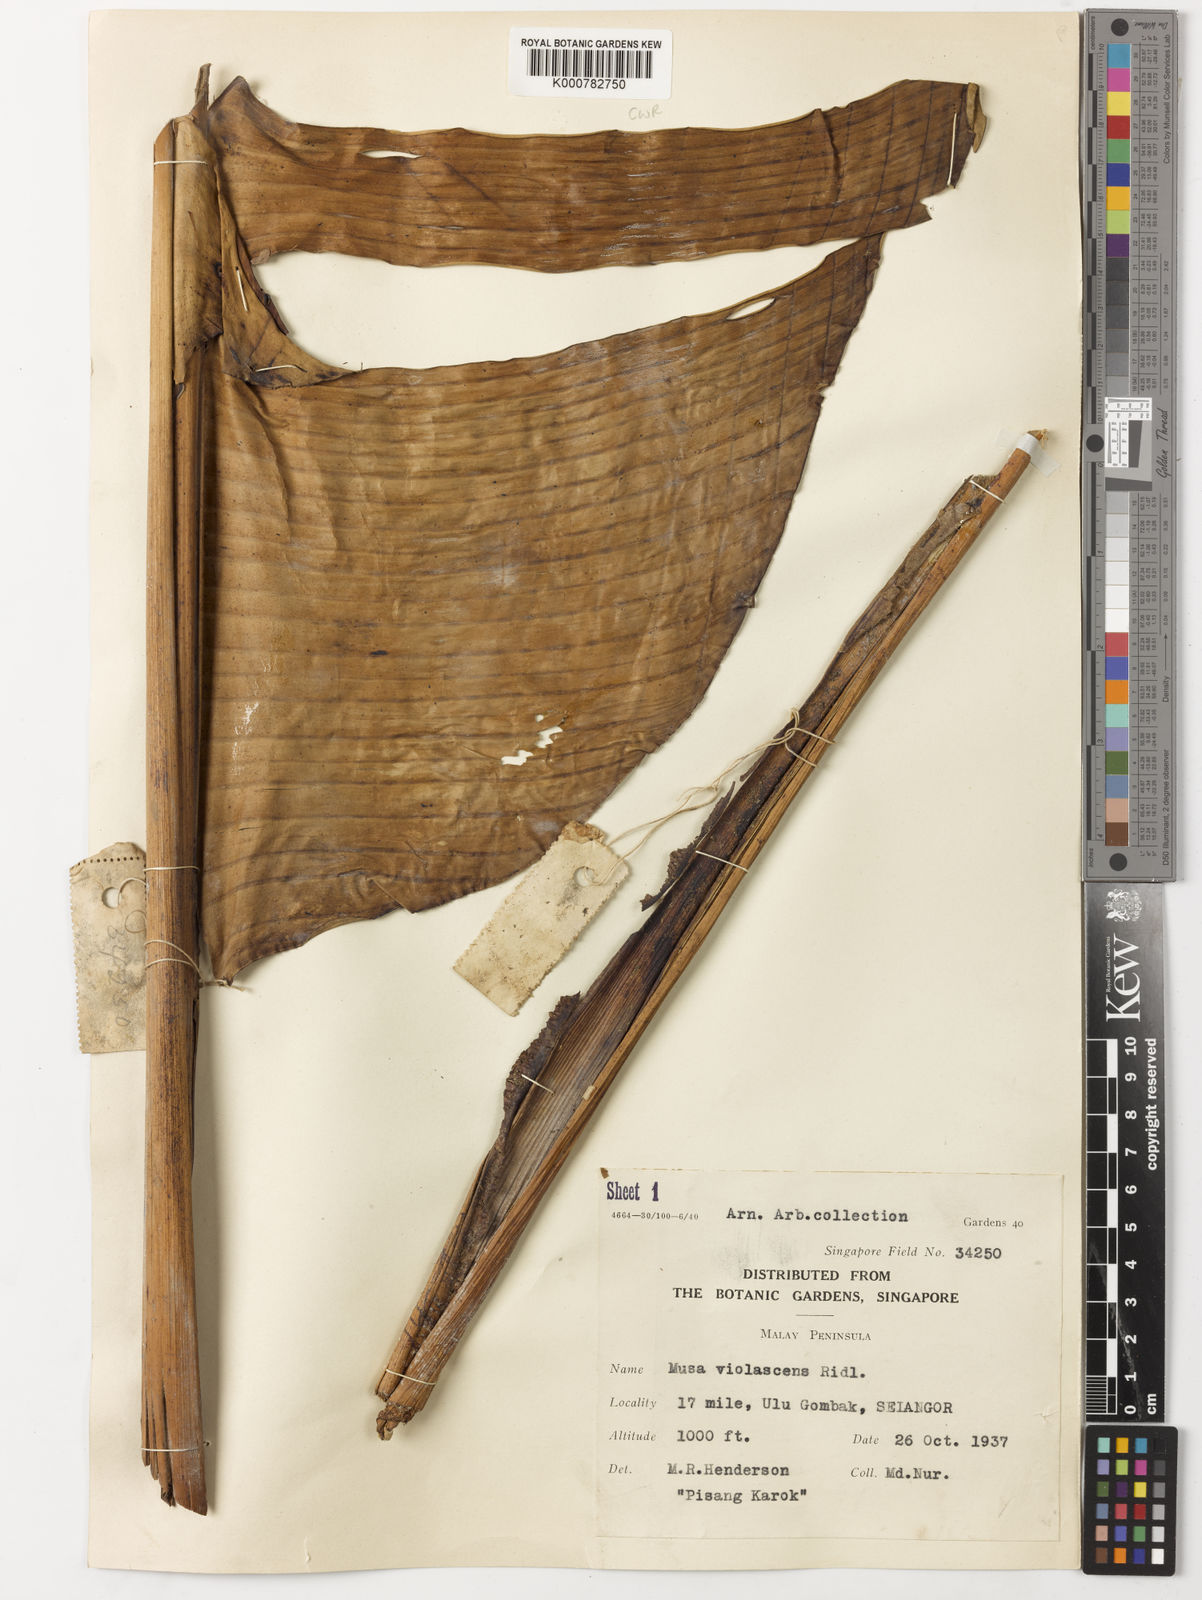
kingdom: Plantae
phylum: Tracheophyta
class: Liliopsida
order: Zingiberales
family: Musaceae
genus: Musa
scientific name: Musa violascens
